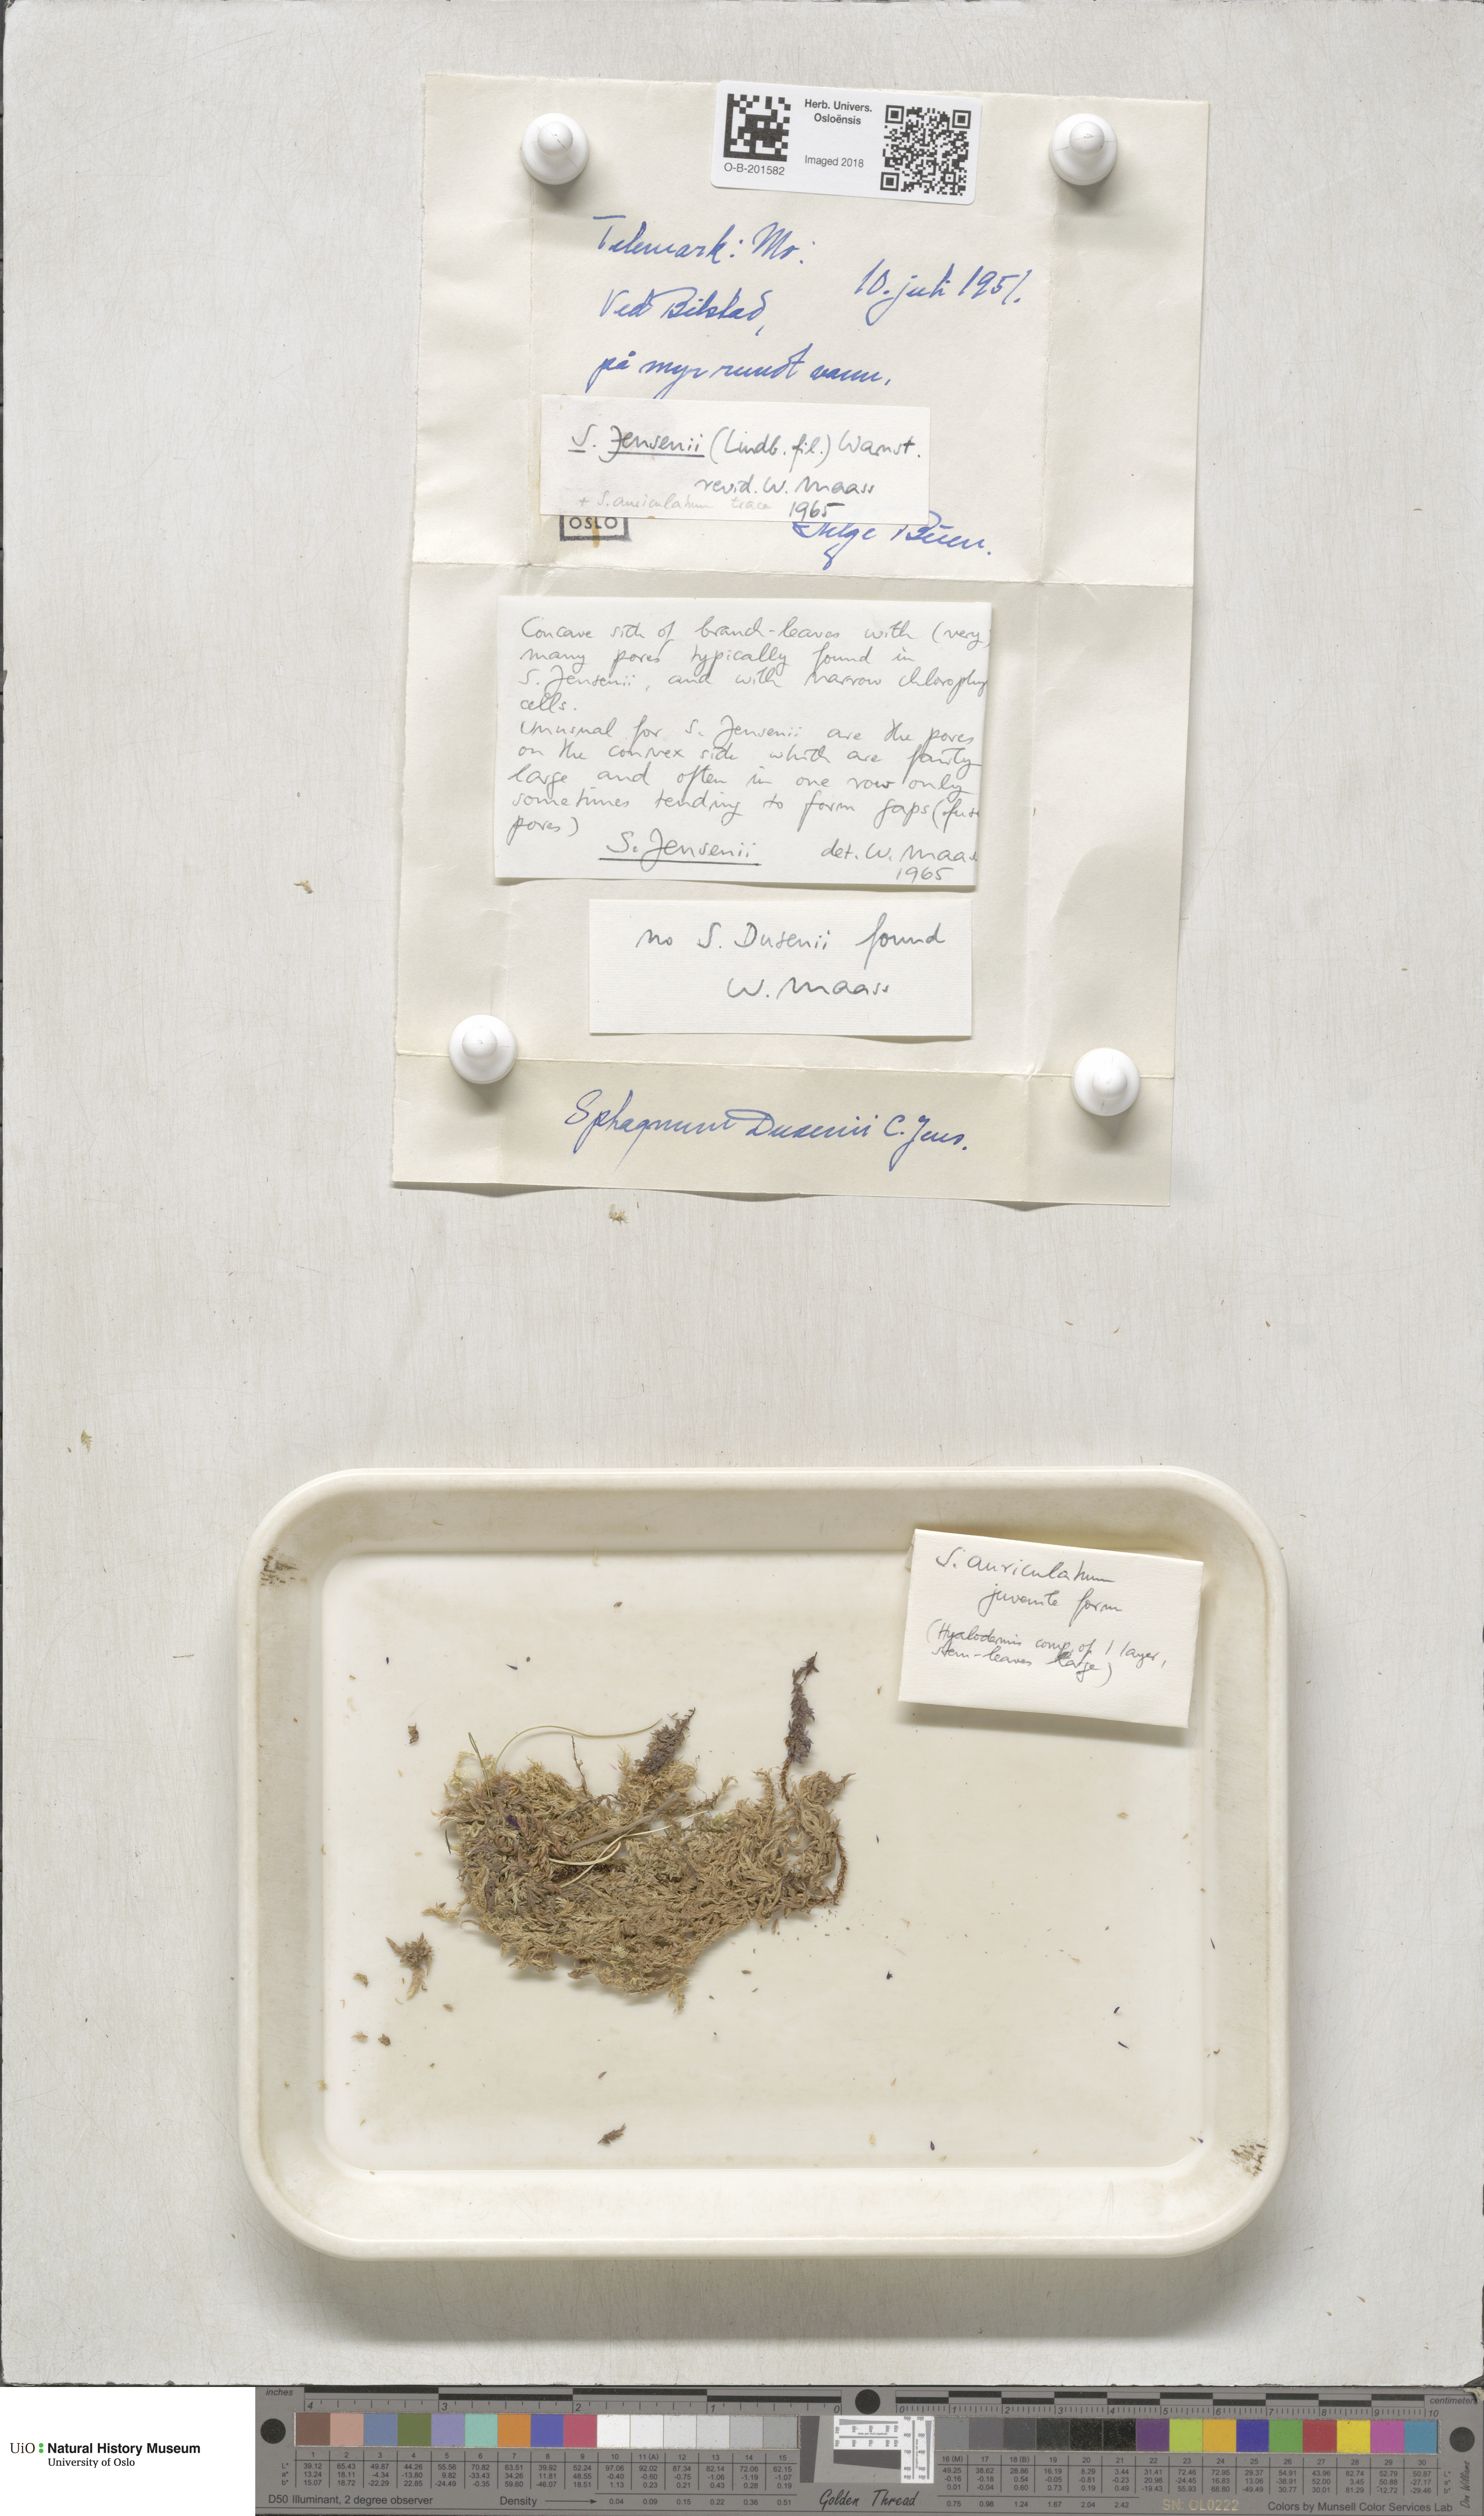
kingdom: Plantae
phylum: Bryophyta
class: Sphagnopsida
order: Sphagnales
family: Sphagnaceae
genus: Sphagnum
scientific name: Sphagnum jensenii
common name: Jensen's peat moss
